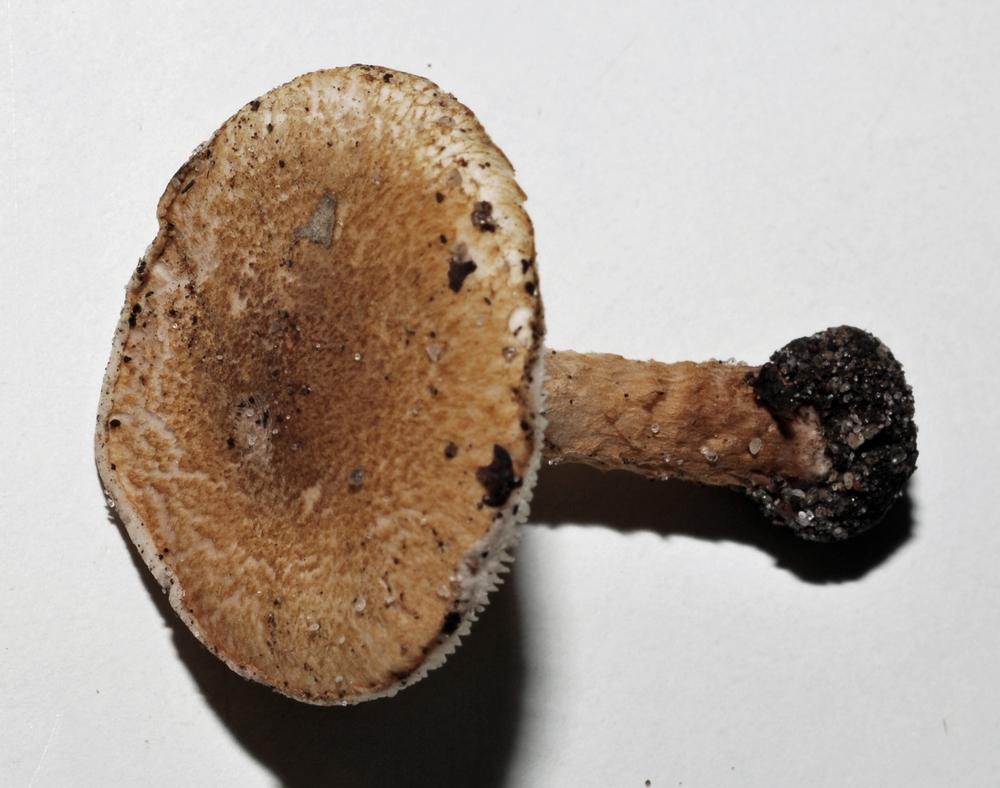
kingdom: Fungi
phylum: Basidiomycota
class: Agaricomycetes
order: Agaricales
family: Agaricaceae
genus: Leucocoprinus
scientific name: Leucocoprinus straminellus
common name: rustbrun parasolhat
